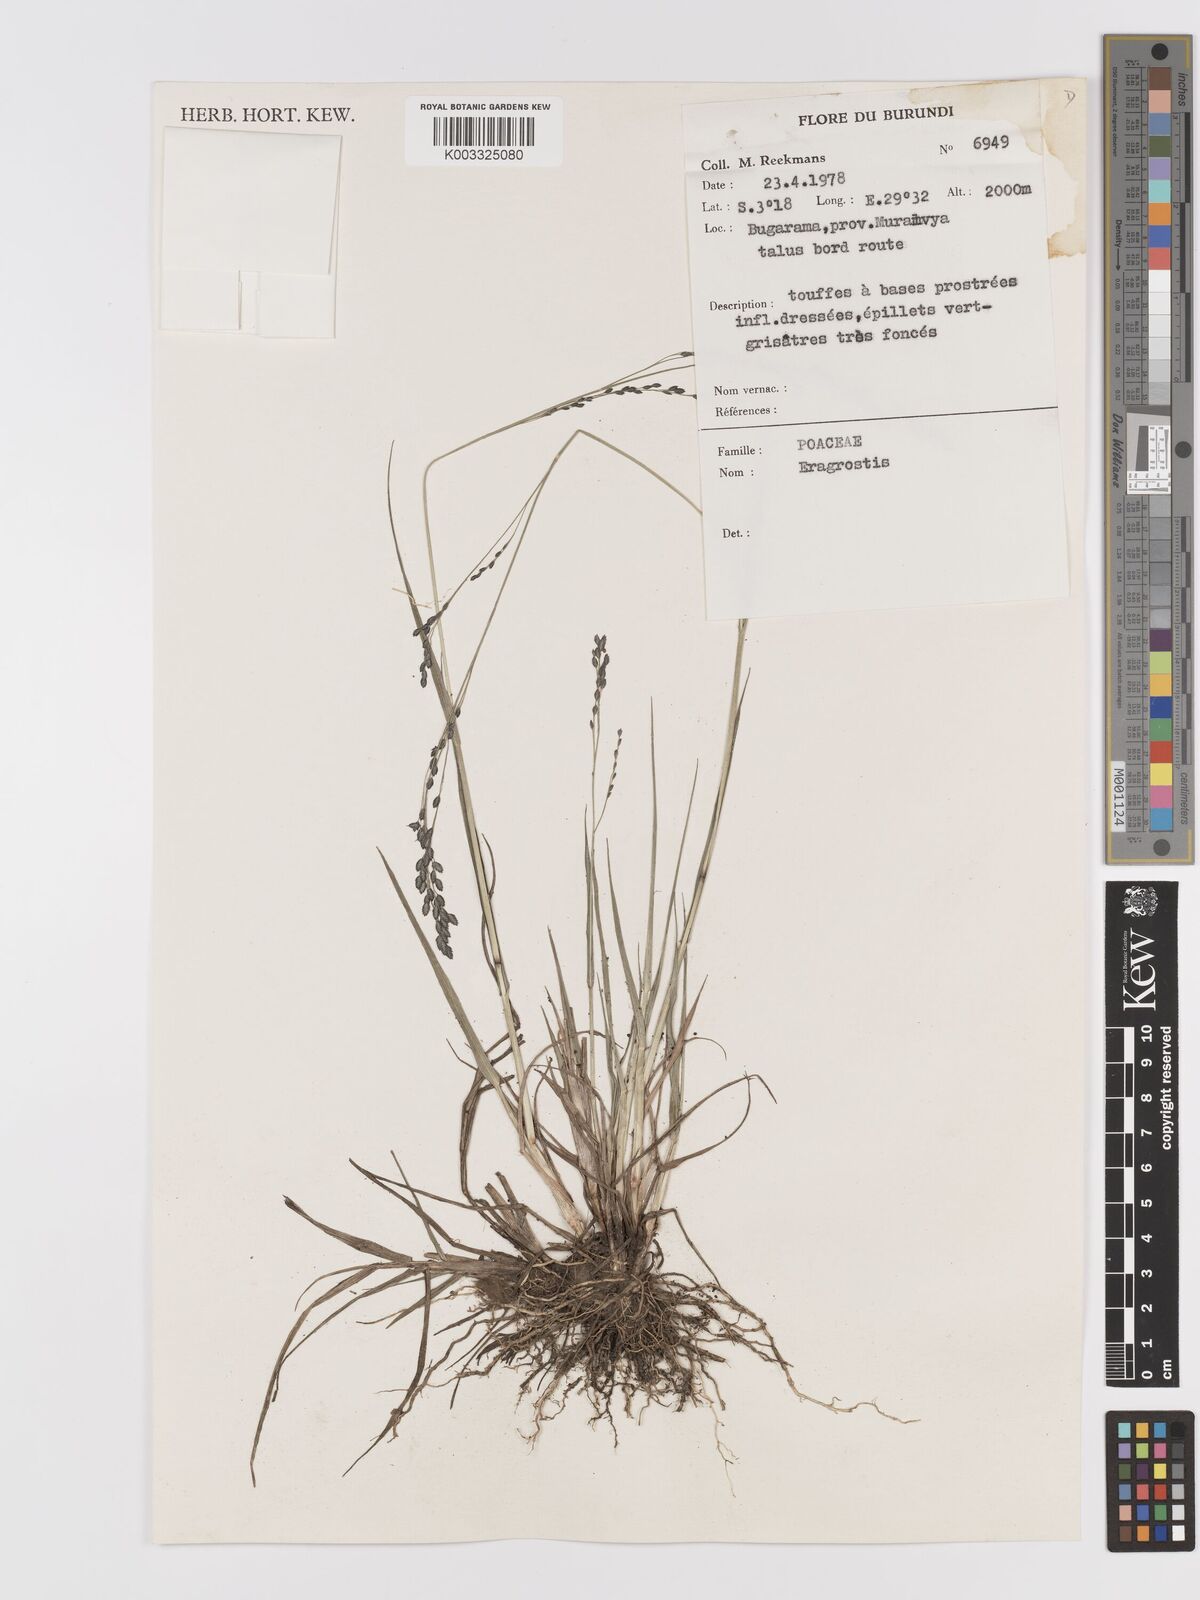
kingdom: Plantae
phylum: Tracheophyta
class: Liliopsida
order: Poales
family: Poaceae
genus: Eragrostis
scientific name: Eragrostis
